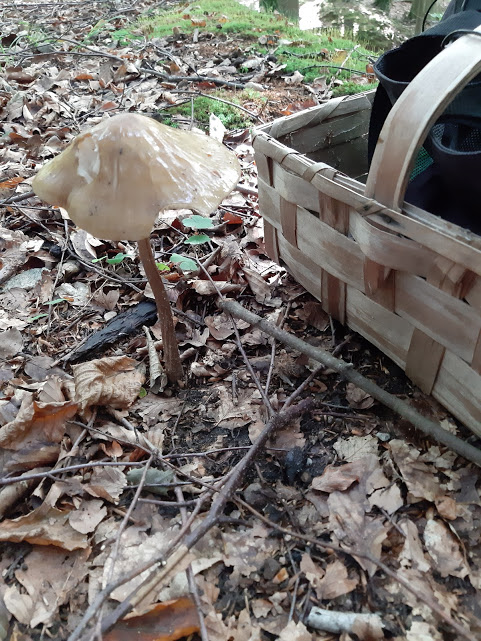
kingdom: Fungi
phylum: Basidiomycota
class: Agaricomycetes
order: Agaricales
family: Physalacriaceae
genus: Hymenopellis
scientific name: Hymenopellis radicata
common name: almindelig pælerodshat
